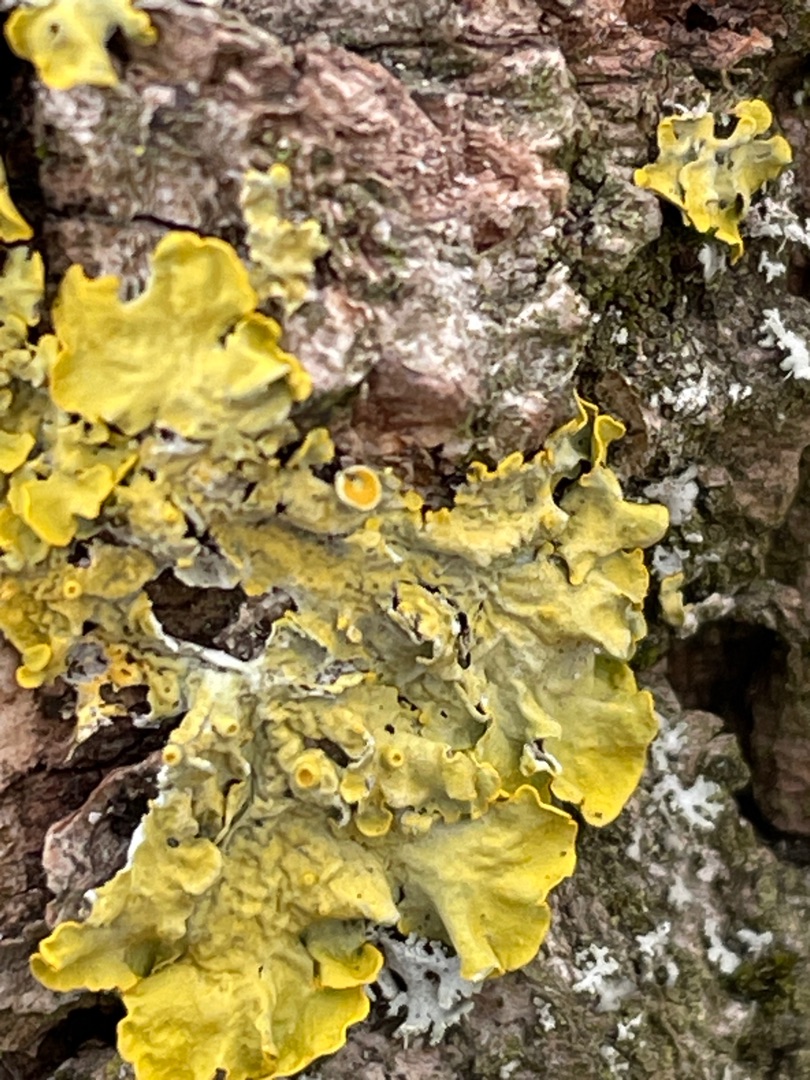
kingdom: Fungi
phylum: Ascomycota
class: Lecanoromycetes
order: Teloschistales
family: Teloschistaceae
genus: Xanthoria
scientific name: Xanthoria parietina
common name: Almindelig væggelav
